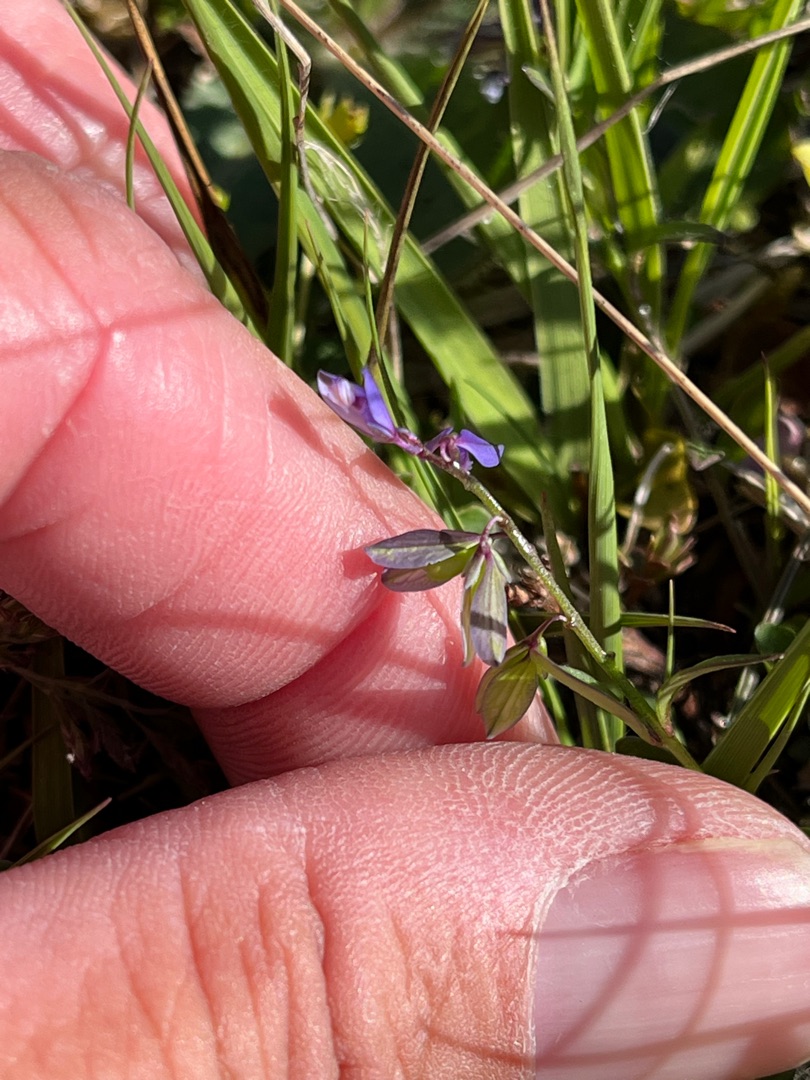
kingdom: Plantae
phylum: Tracheophyta
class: Magnoliopsida
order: Fabales
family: Polygalaceae
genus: Polygala
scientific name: Polygala serpyllifolia
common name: Spæd mælkeurt
